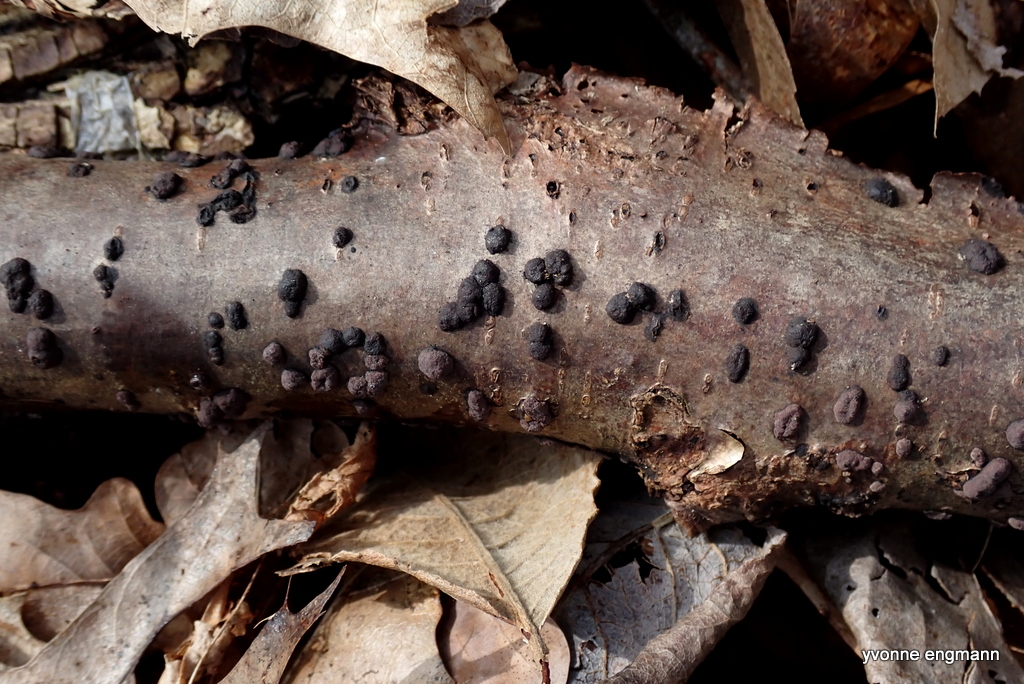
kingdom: Fungi
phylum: Ascomycota
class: Sordariomycetes
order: Xylariales
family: Hypoxylaceae
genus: Hypoxylon
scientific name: Hypoxylon fragiforme
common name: kuljordbær
